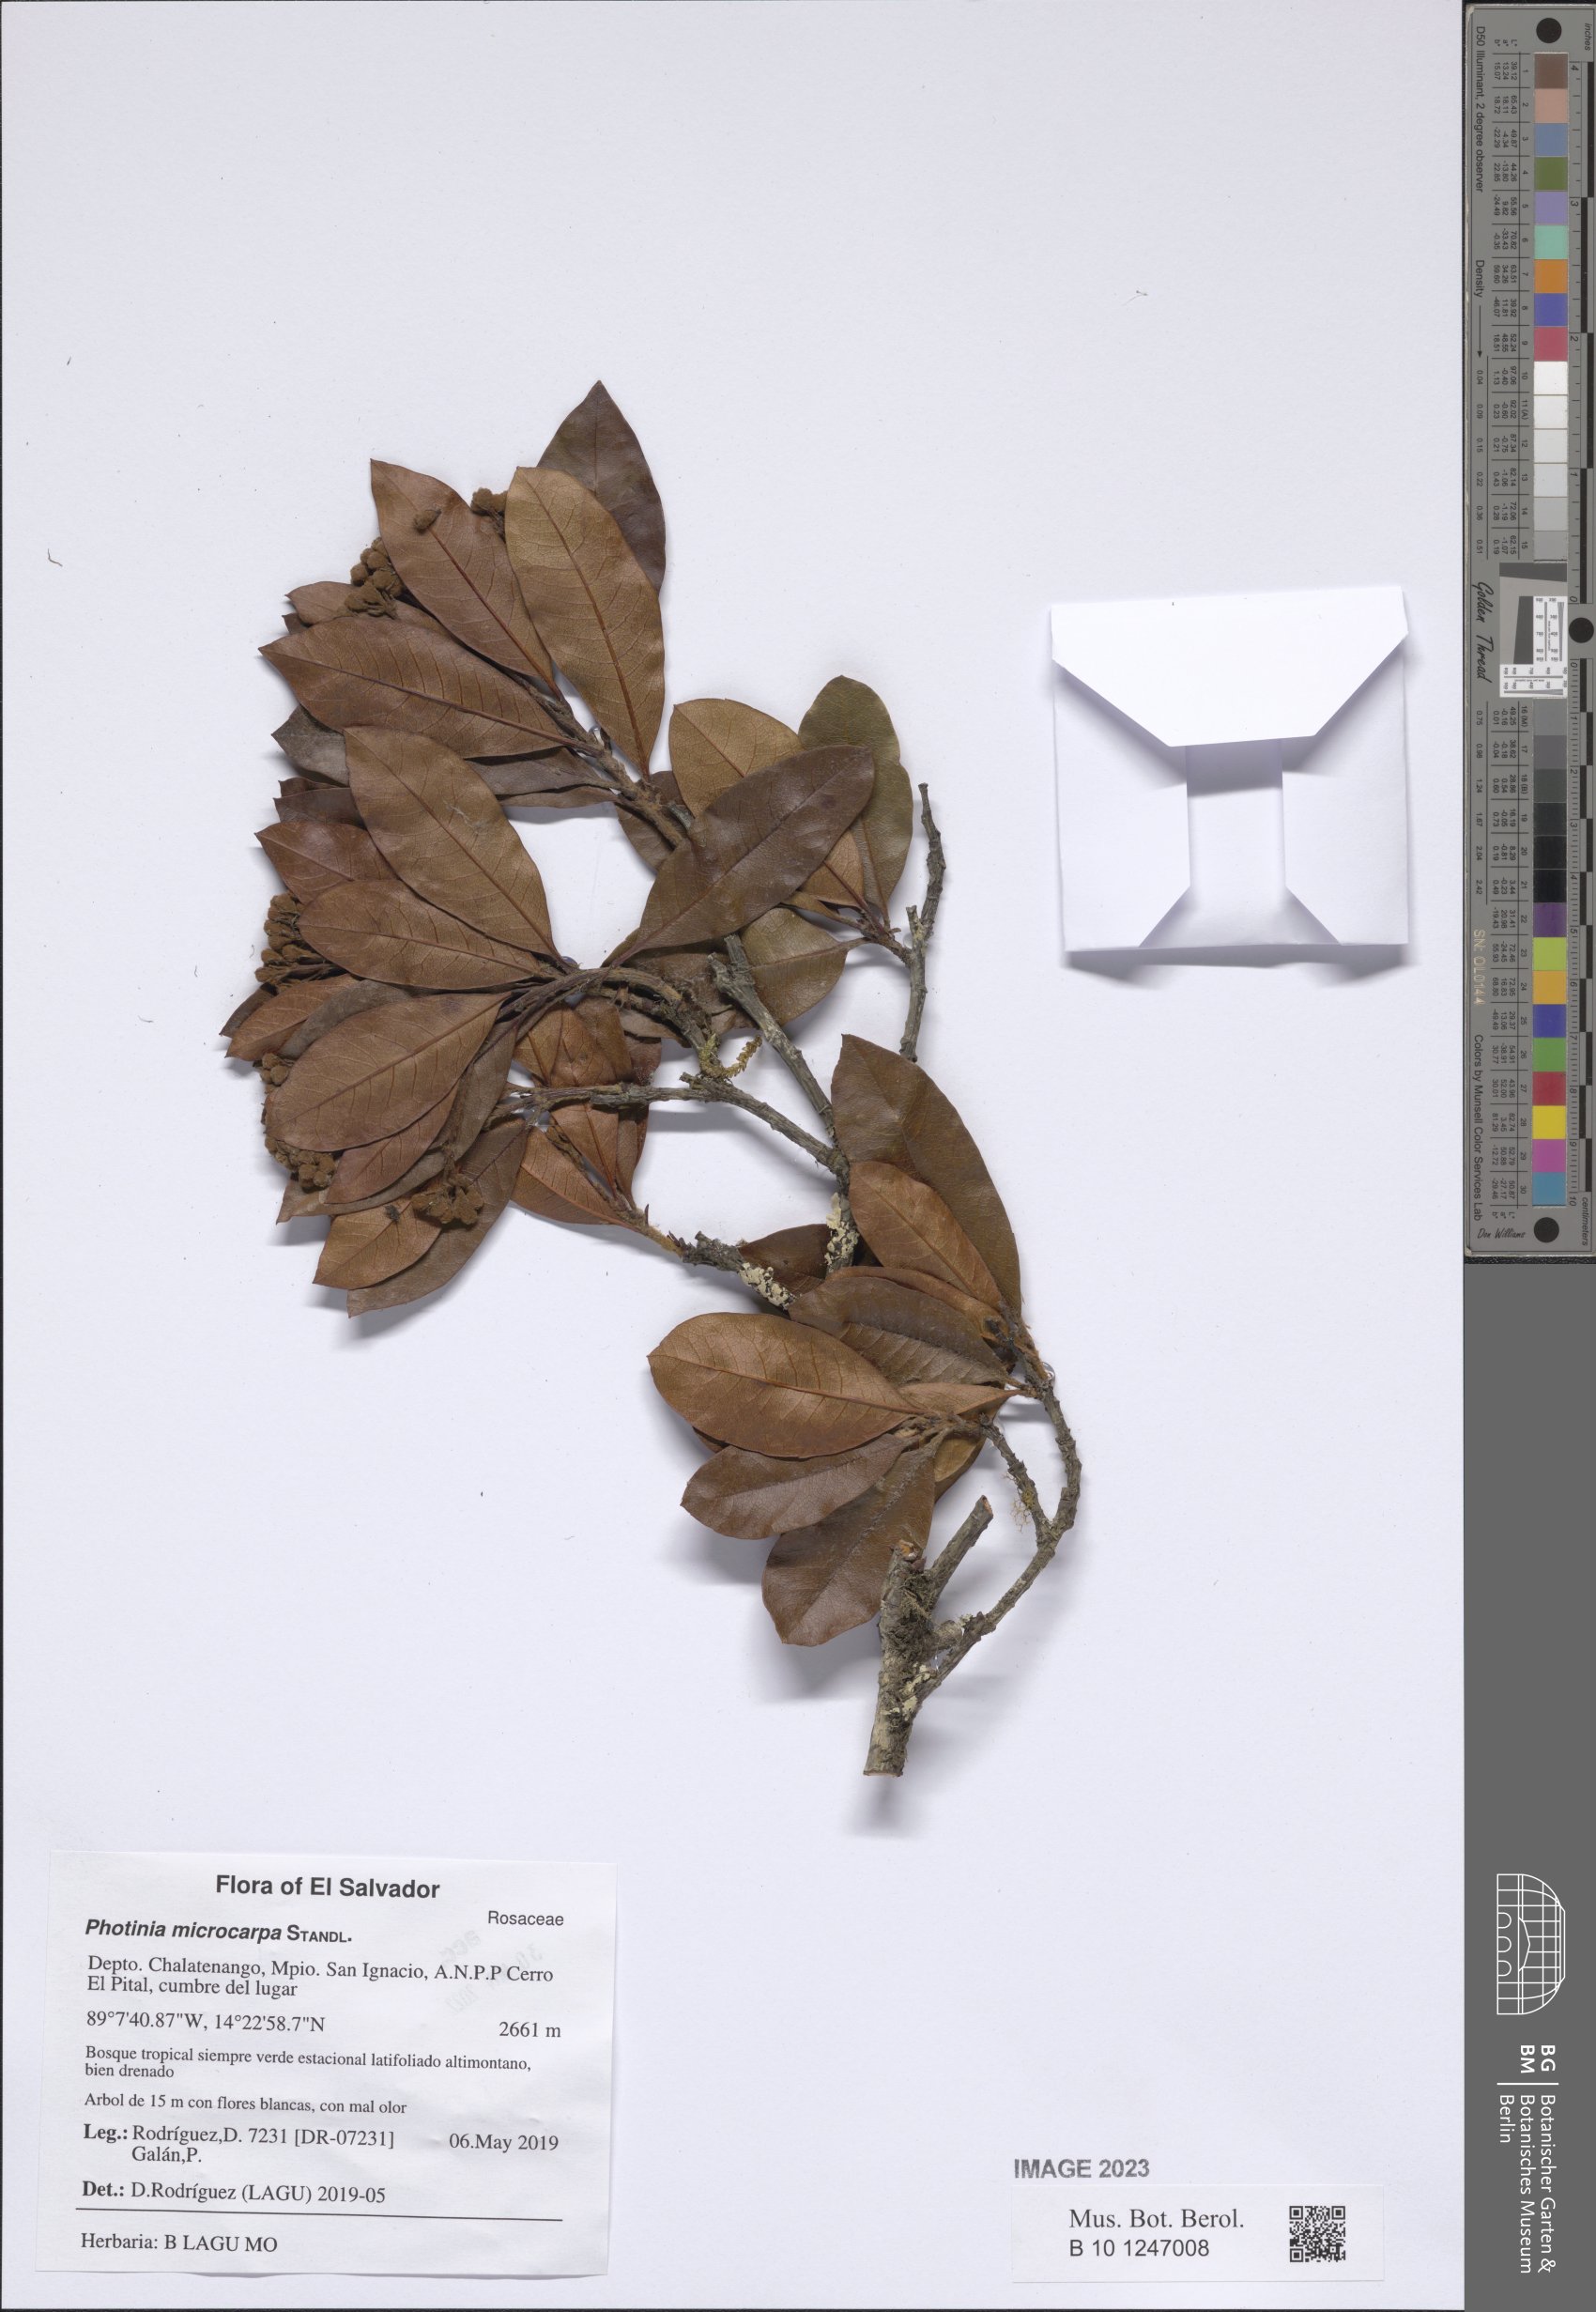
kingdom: Plantae
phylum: Tracheophyta
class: Magnoliopsida
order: Rosales
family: Rosaceae
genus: Phippsiomeles
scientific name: Phippsiomeles microcarpa
